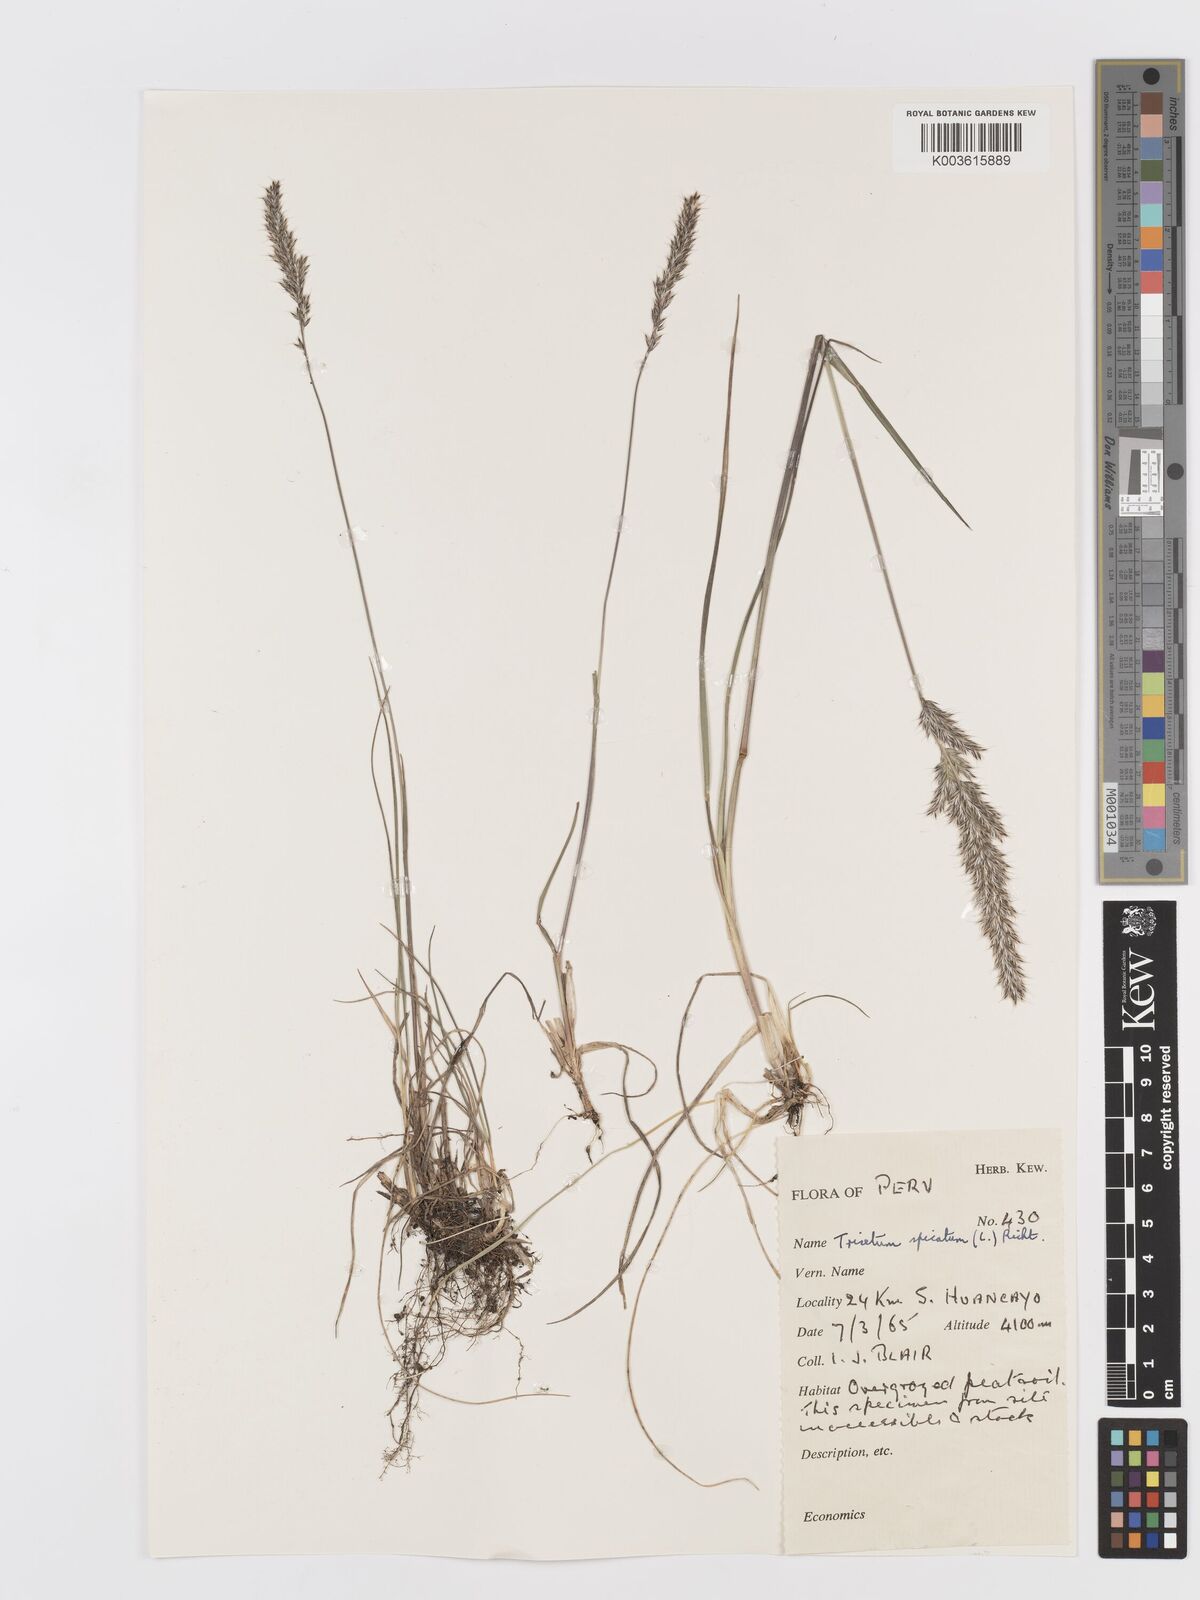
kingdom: Plantae
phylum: Tracheophyta
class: Liliopsida
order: Poales
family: Poaceae
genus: Koeleria
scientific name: Koeleria spicata
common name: Mountain trisetum
